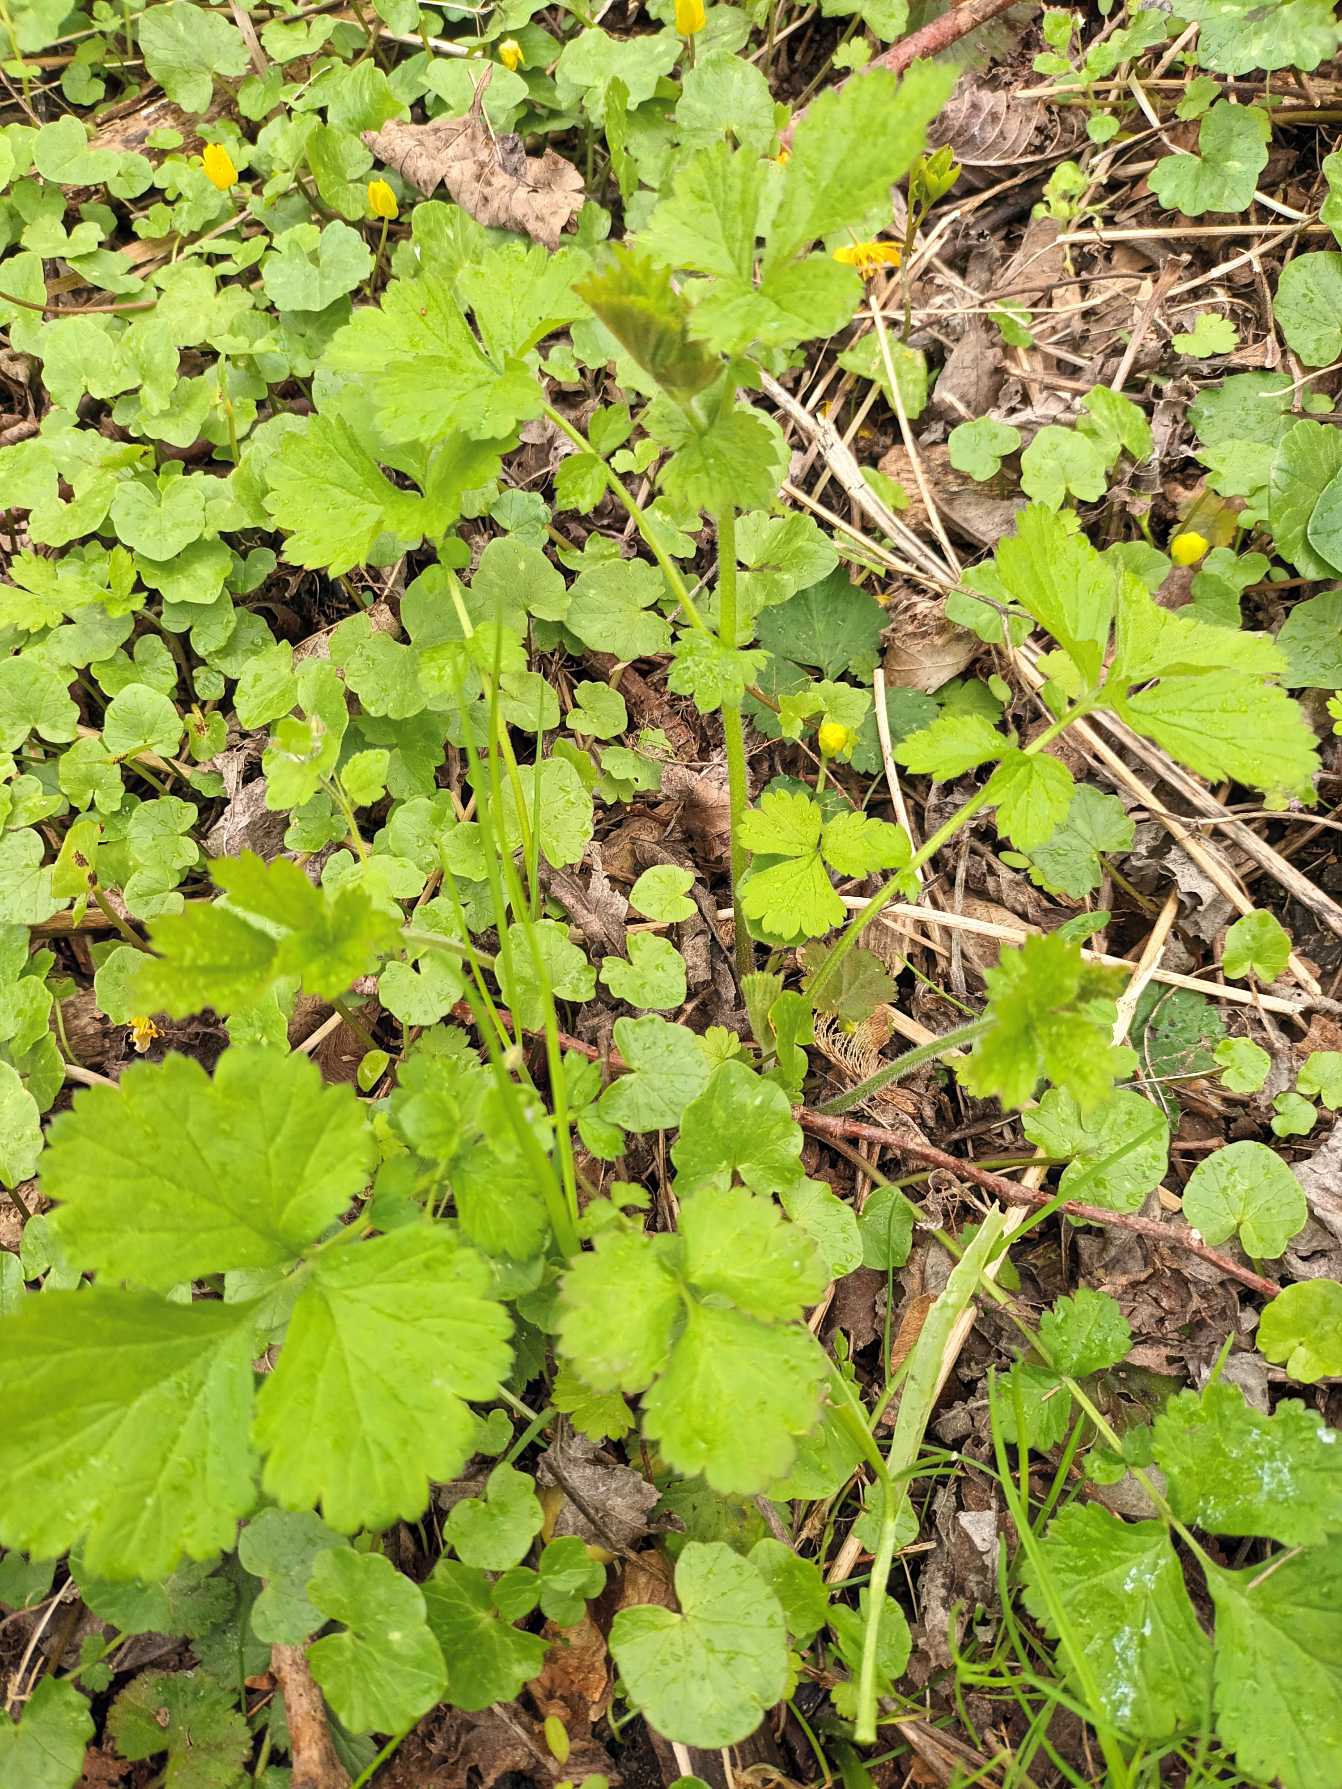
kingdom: Plantae
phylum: Tracheophyta
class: Magnoliopsida
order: Rosales
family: Rosaceae
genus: Geum
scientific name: Geum urbanum
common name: Feber-nellikerod
